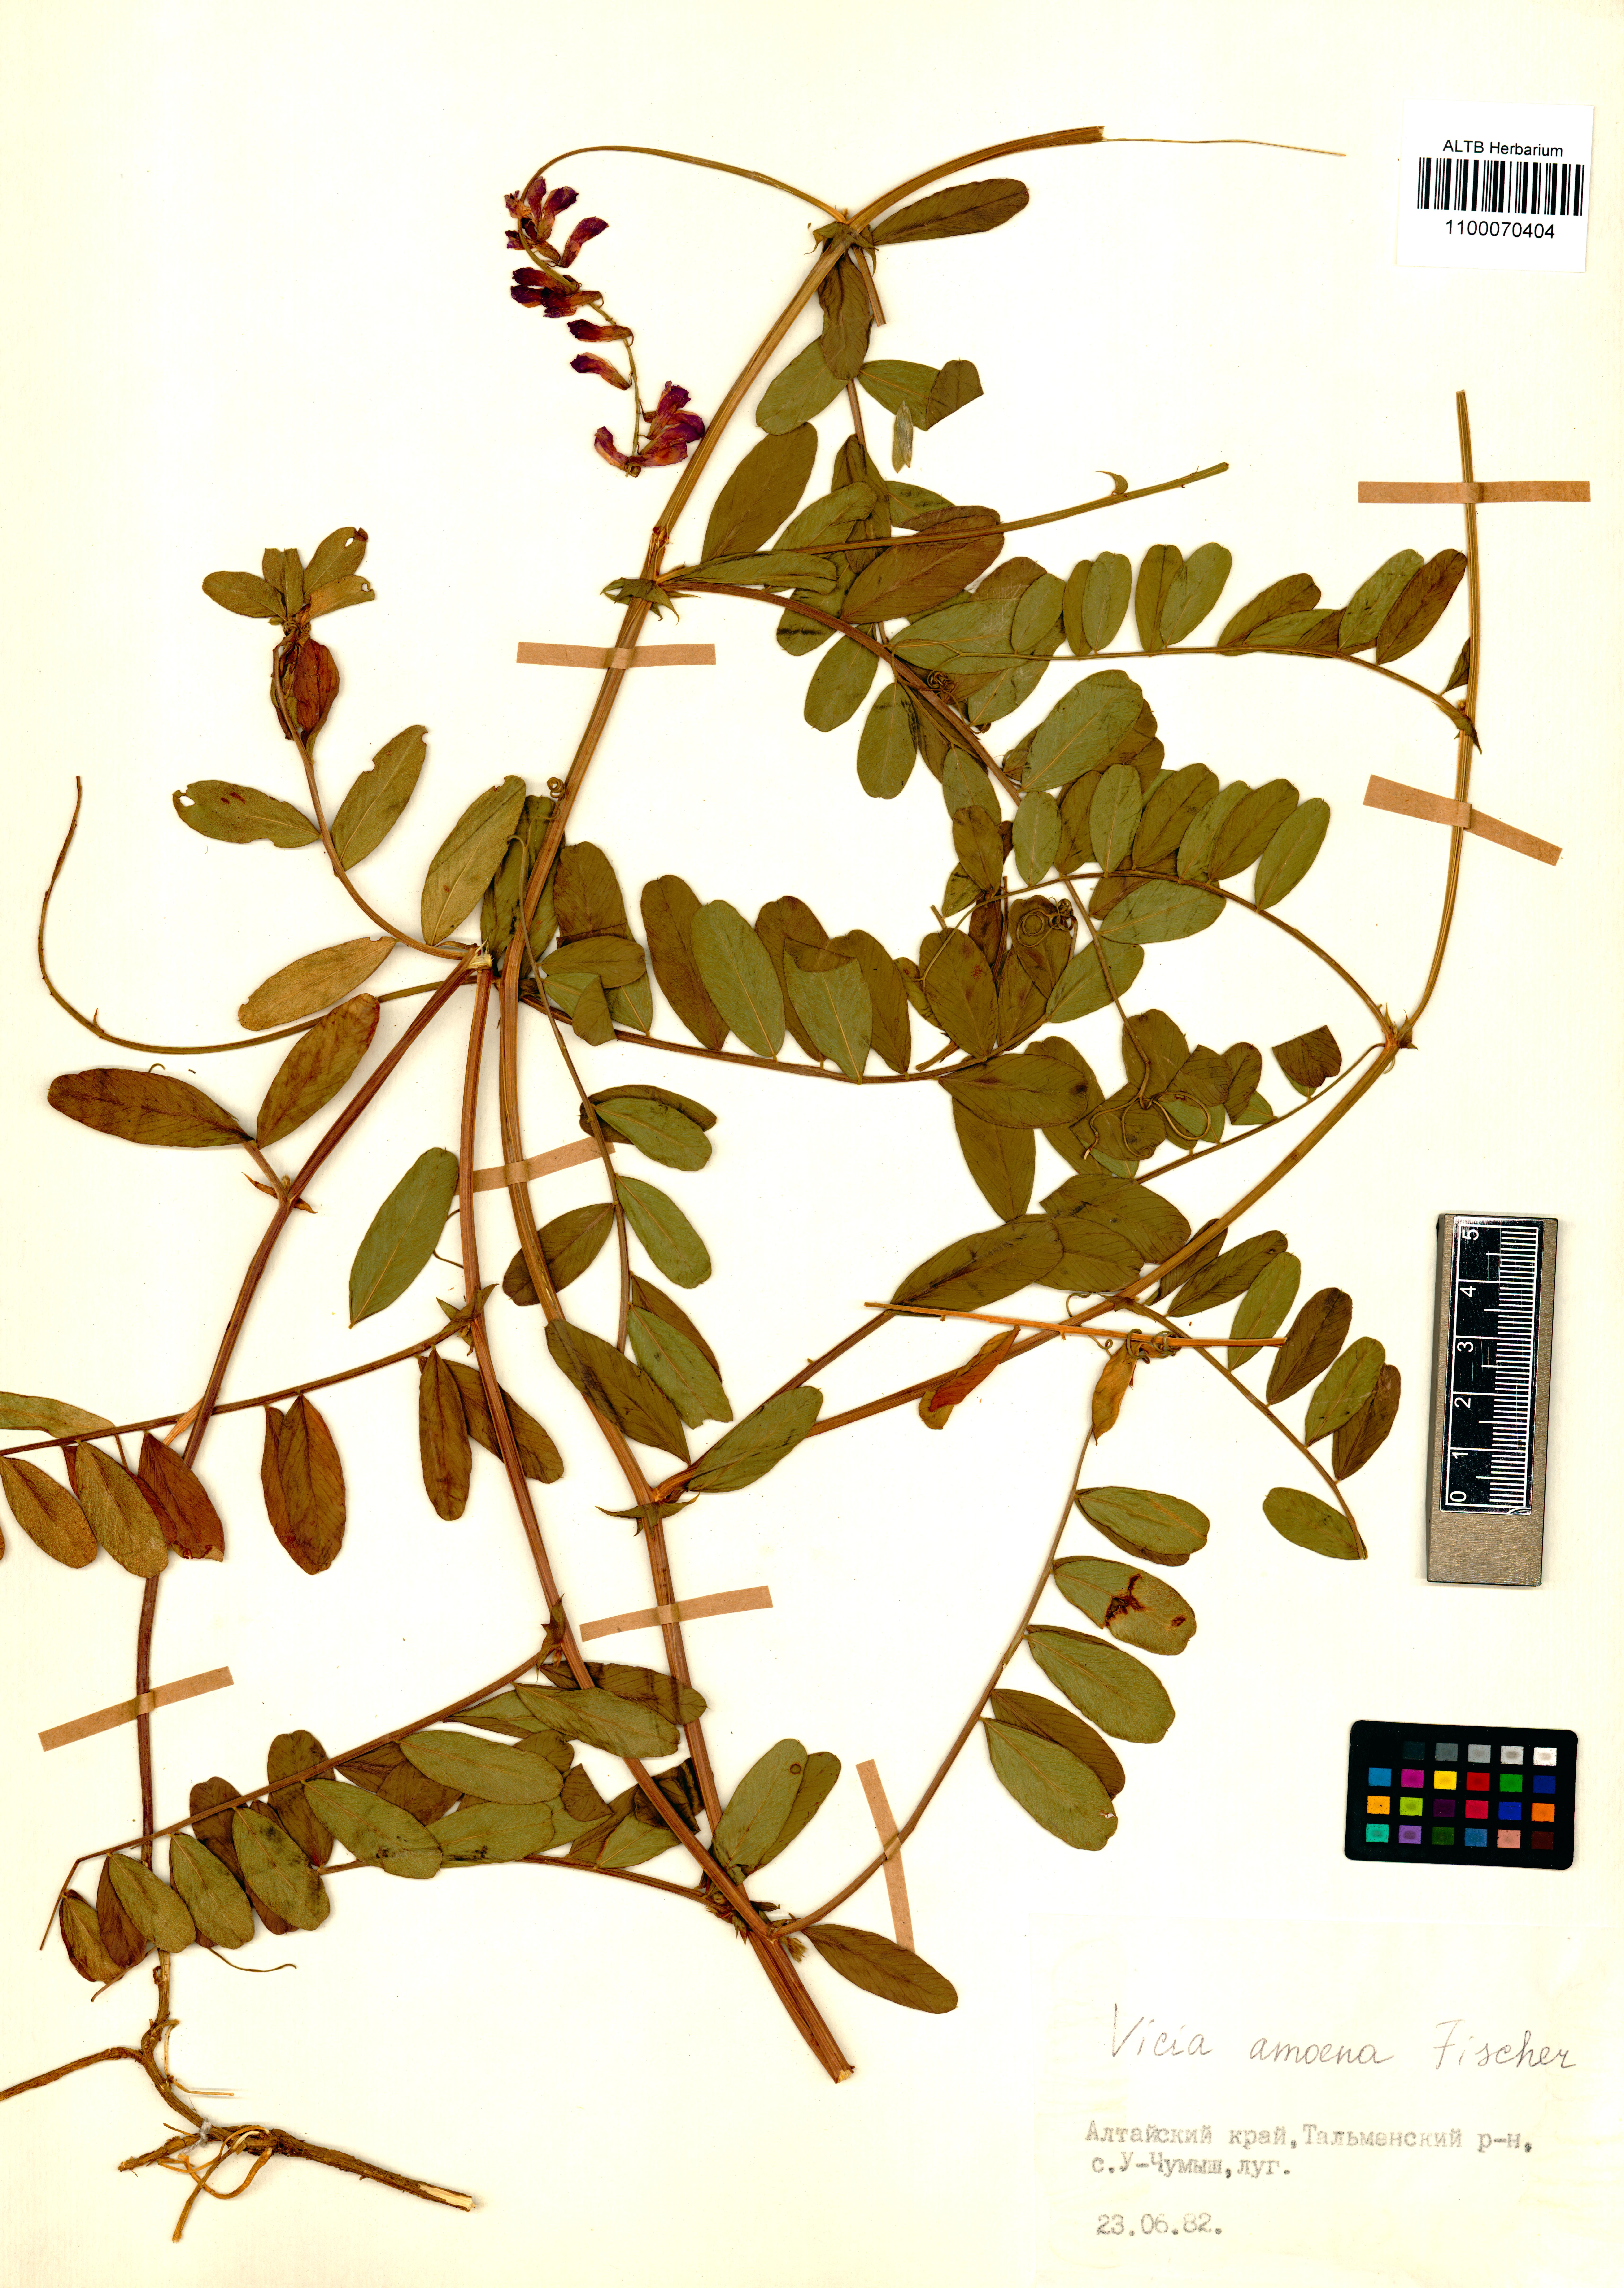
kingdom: Plantae
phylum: Tracheophyta
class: Magnoliopsida
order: Fabales
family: Fabaceae
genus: Vicia
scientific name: Vicia amoena
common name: Cheder ebs
